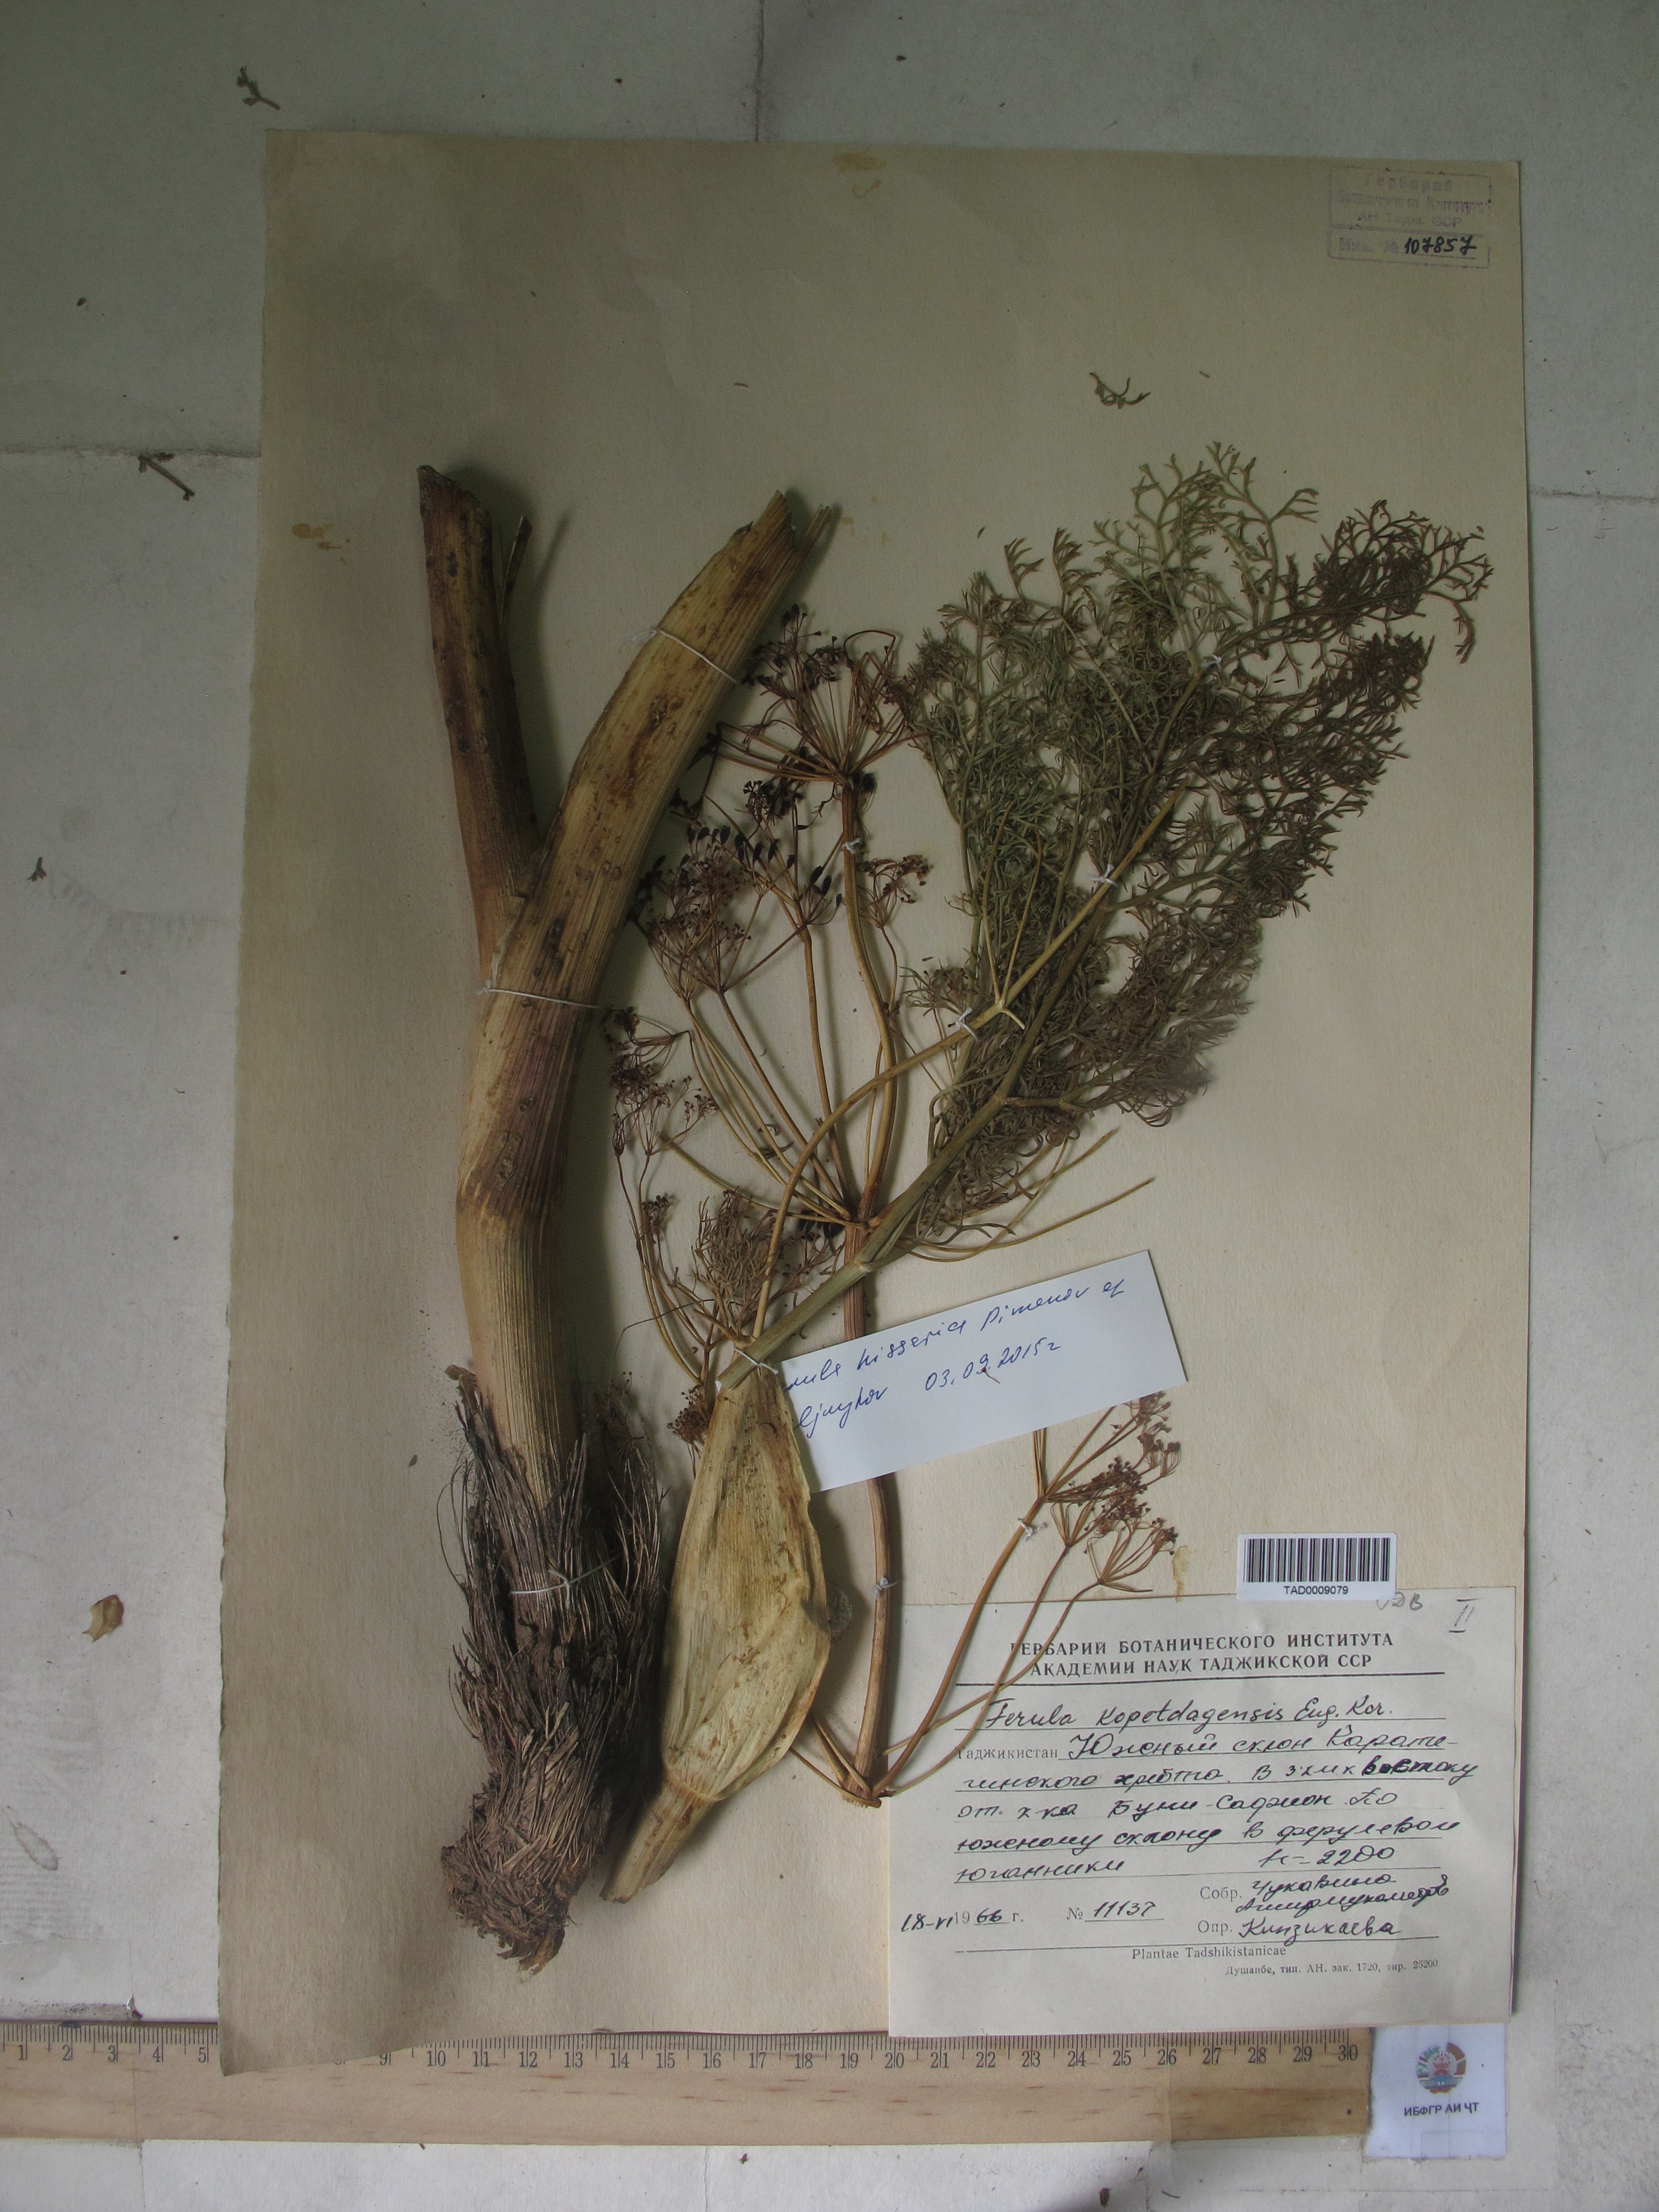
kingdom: Plantae
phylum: Tracheophyta
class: Magnoliopsida
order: Apiales
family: Apiaceae
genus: Ferula
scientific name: Ferula hissarica
